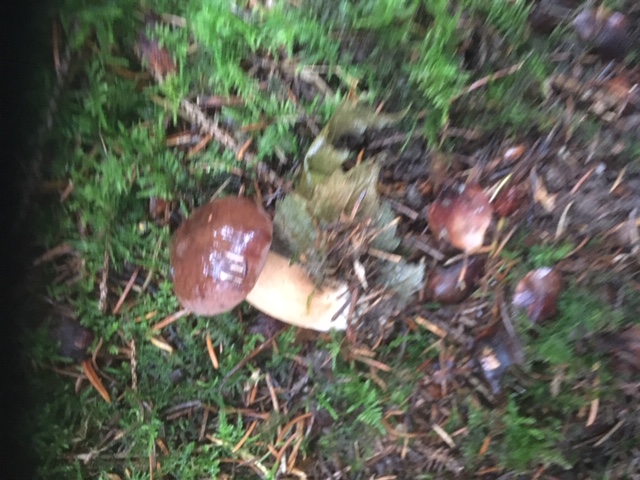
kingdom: Fungi
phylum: Basidiomycota
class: Agaricomycetes
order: Boletales
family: Boletaceae
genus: Imleria
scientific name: Imleria badia
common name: brunstokket rørhat
